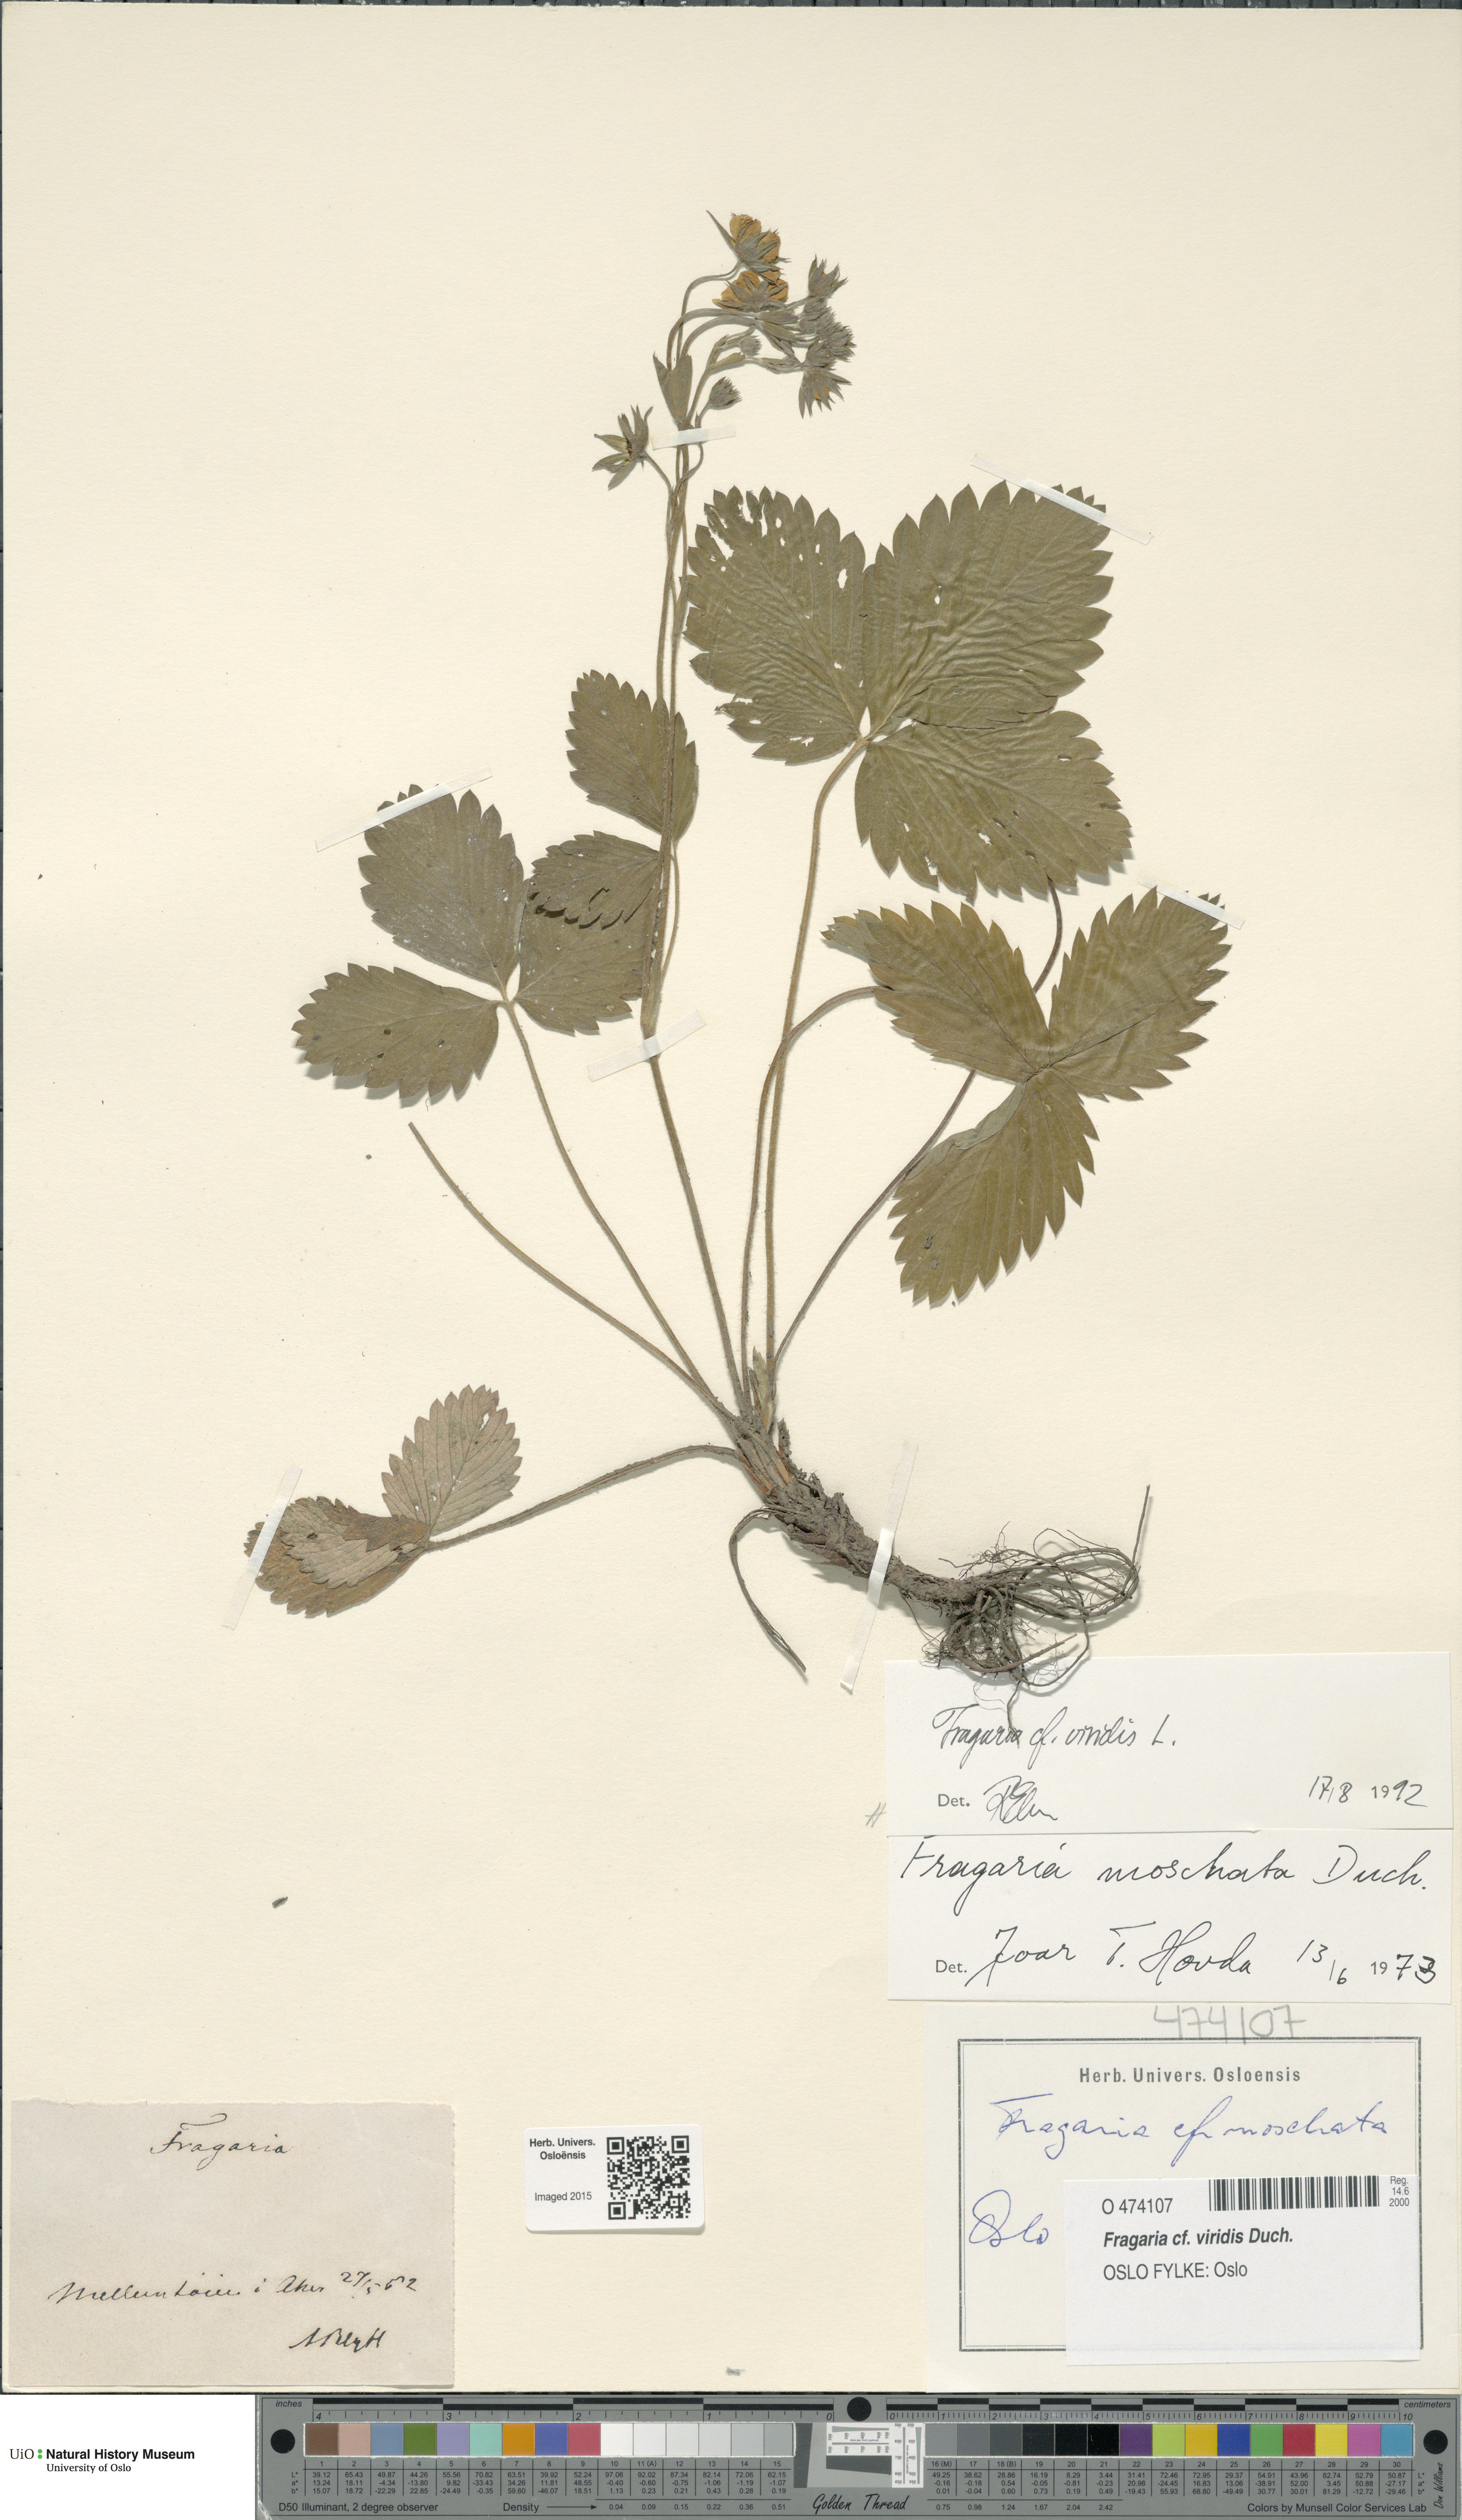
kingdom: Plantae
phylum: Tracheophyta
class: Magnoliopsida
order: Rosales
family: Rosaceae
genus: Fragaria
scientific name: Fragaria viridis
